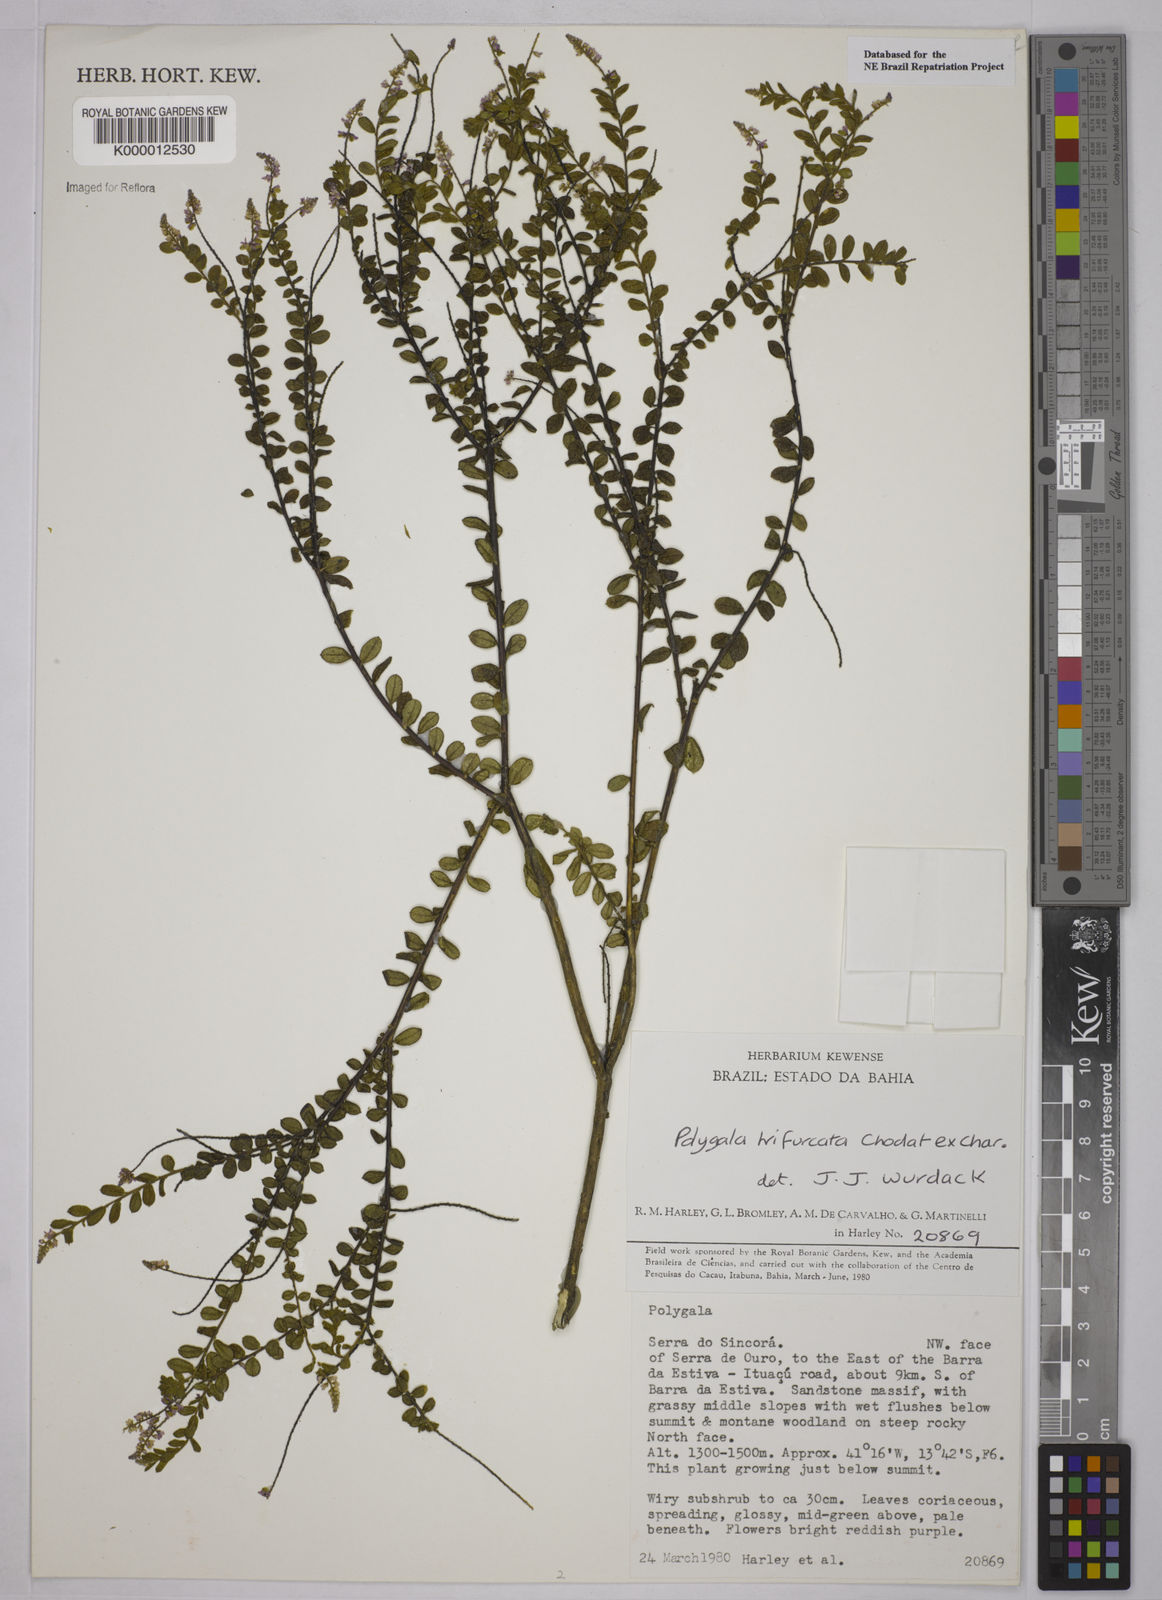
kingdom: Plantae
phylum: Tracheophyta
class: Magnoliopsida
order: Fabales
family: Polygalaceae
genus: Polygala
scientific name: Polygala trifurcata
